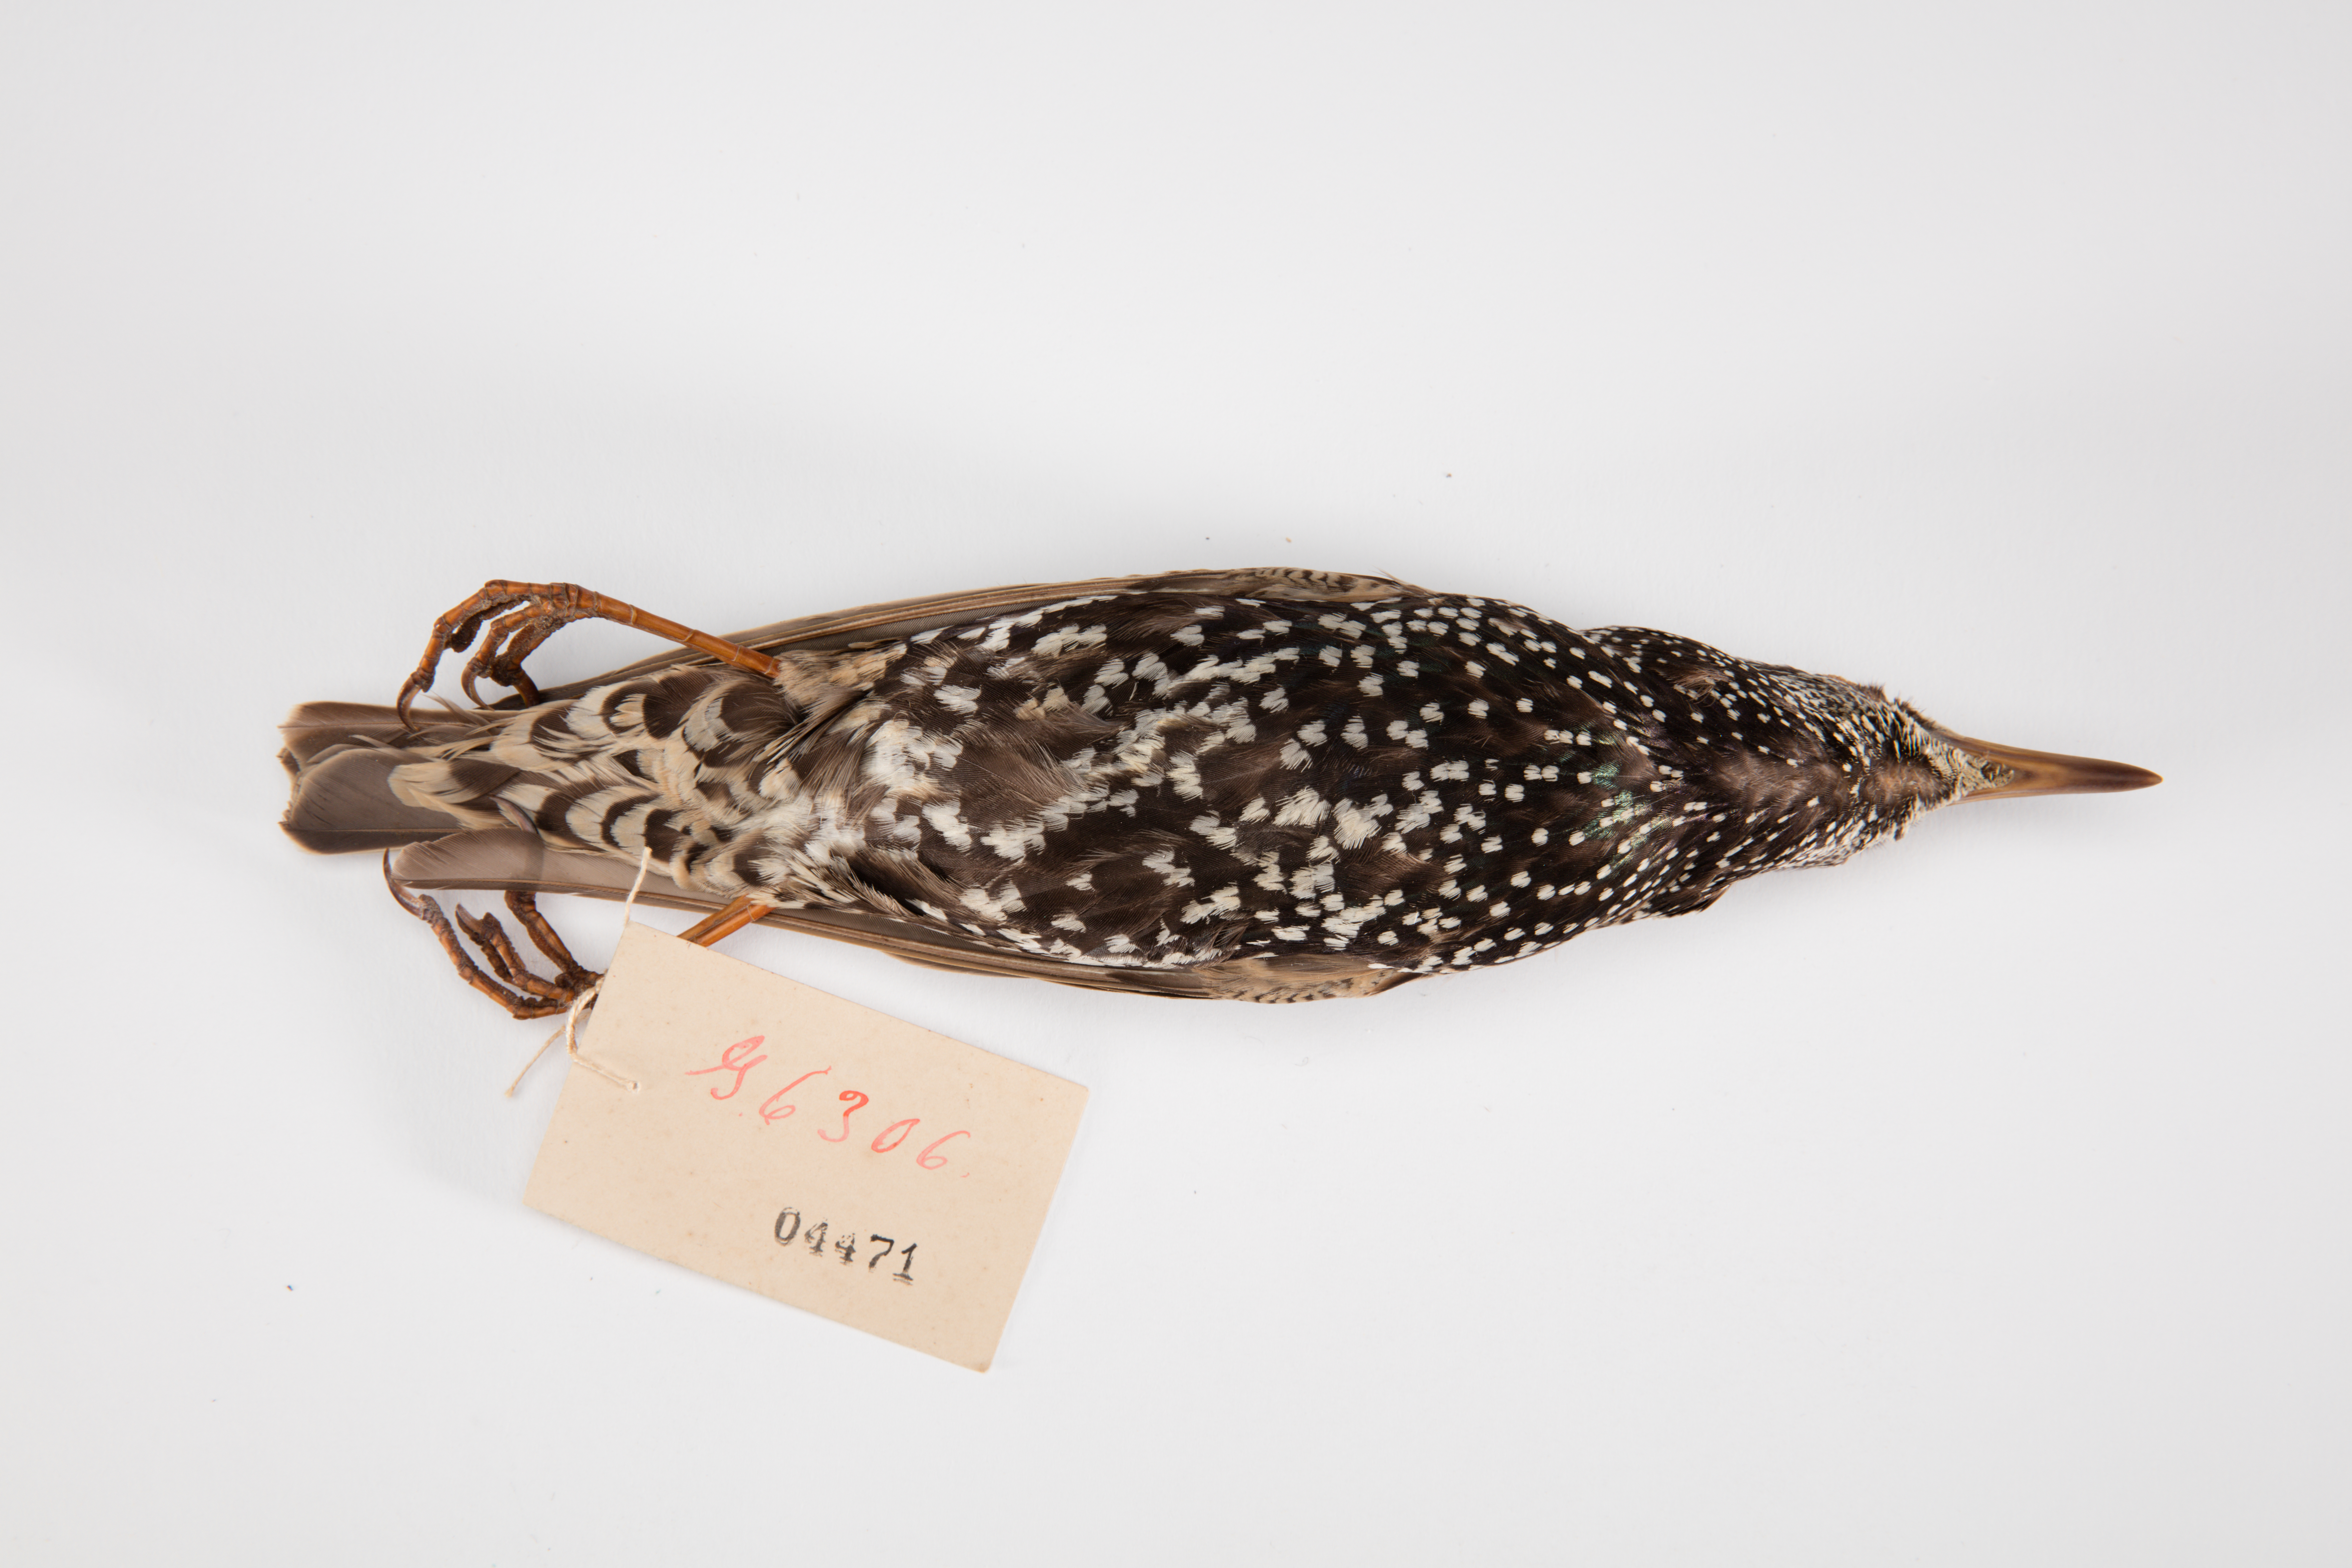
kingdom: Animalia
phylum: Chordata
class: Aves
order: Passeriformes
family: Sturnidae
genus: Sturnus
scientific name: Sturnus vulgaris
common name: Common starling
